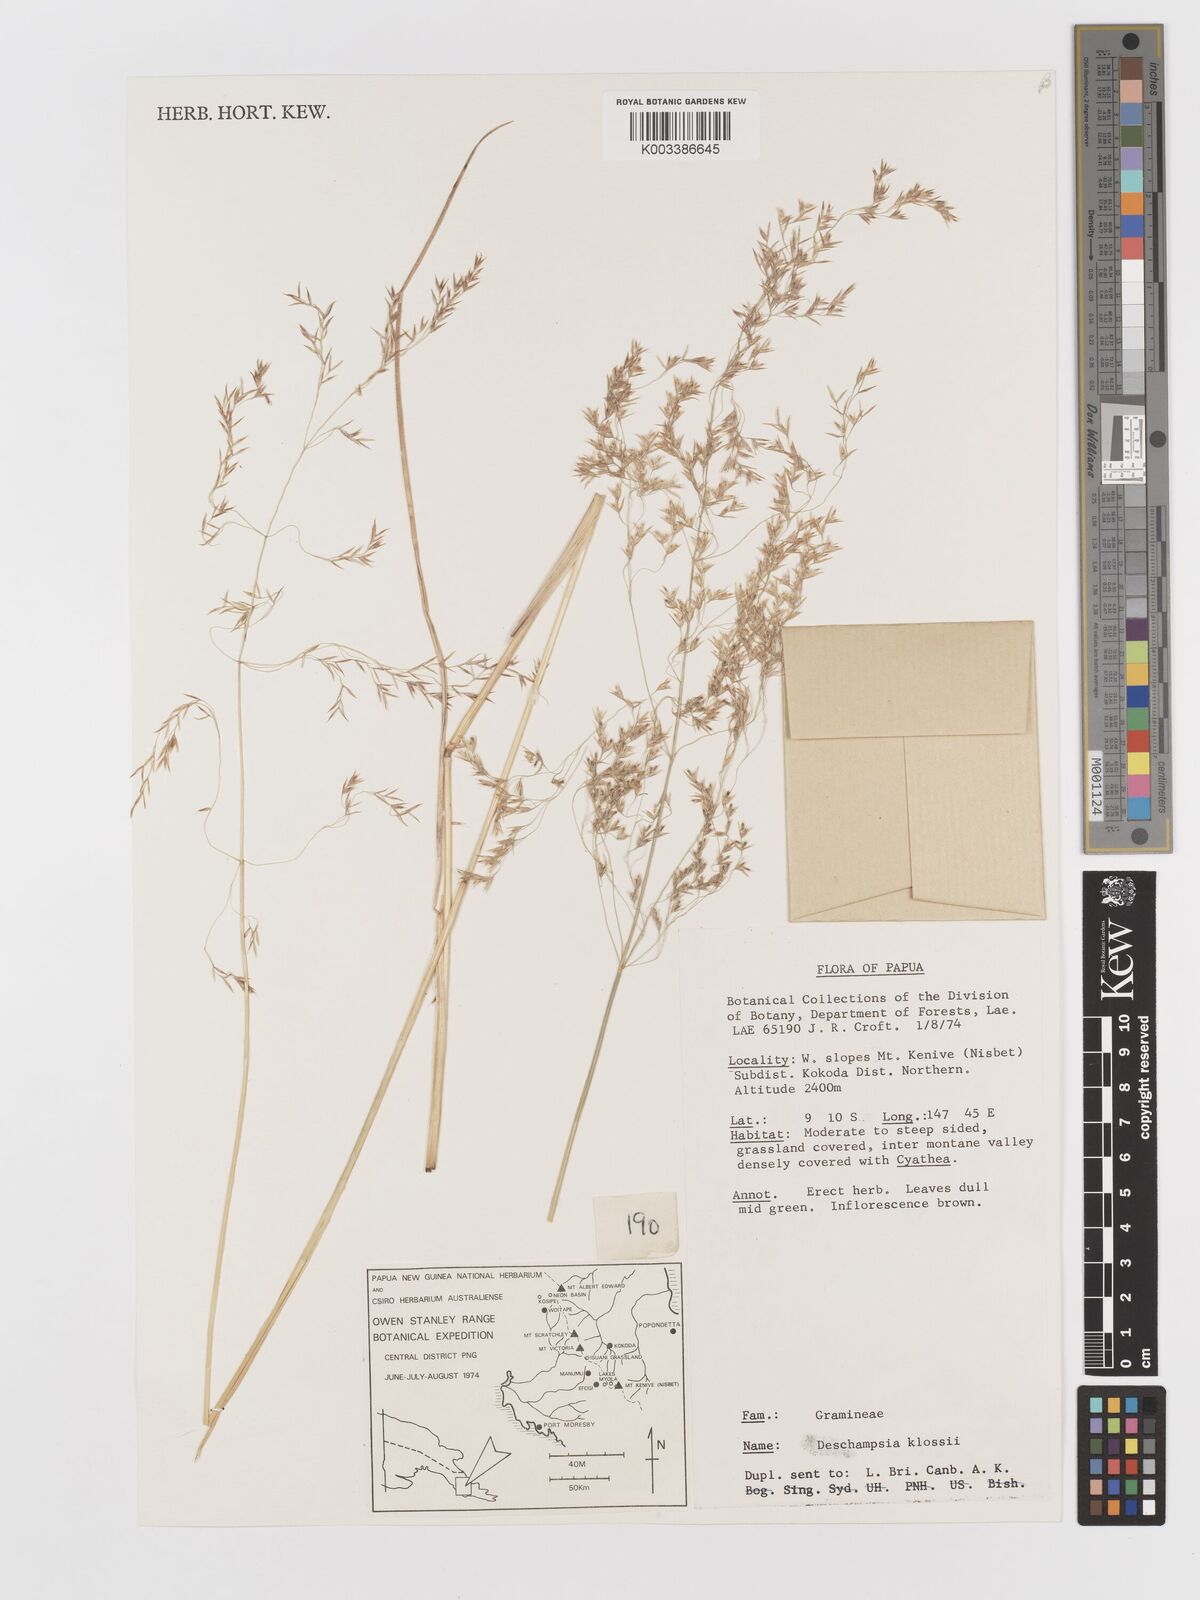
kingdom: Plantae
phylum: Tracheophyta
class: Liliopsida
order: Poales
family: Poaceae
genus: Deschampsia
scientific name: Deschampsia klossii
